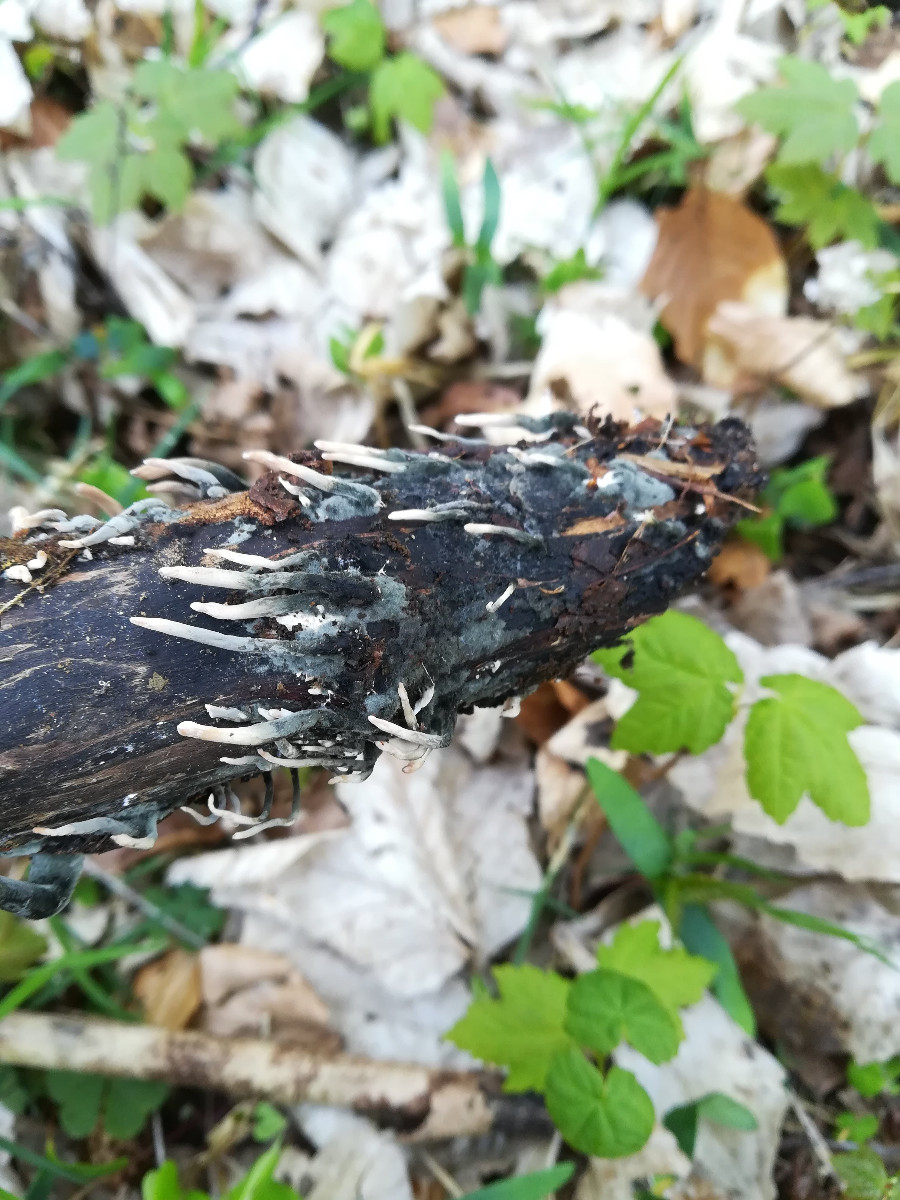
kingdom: Fungi
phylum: Ascomycota
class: Sordariomycetes
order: Xylariales
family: Xylariaceae
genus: Xylaria
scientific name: Xylaria longipes
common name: slank stødsvamp
